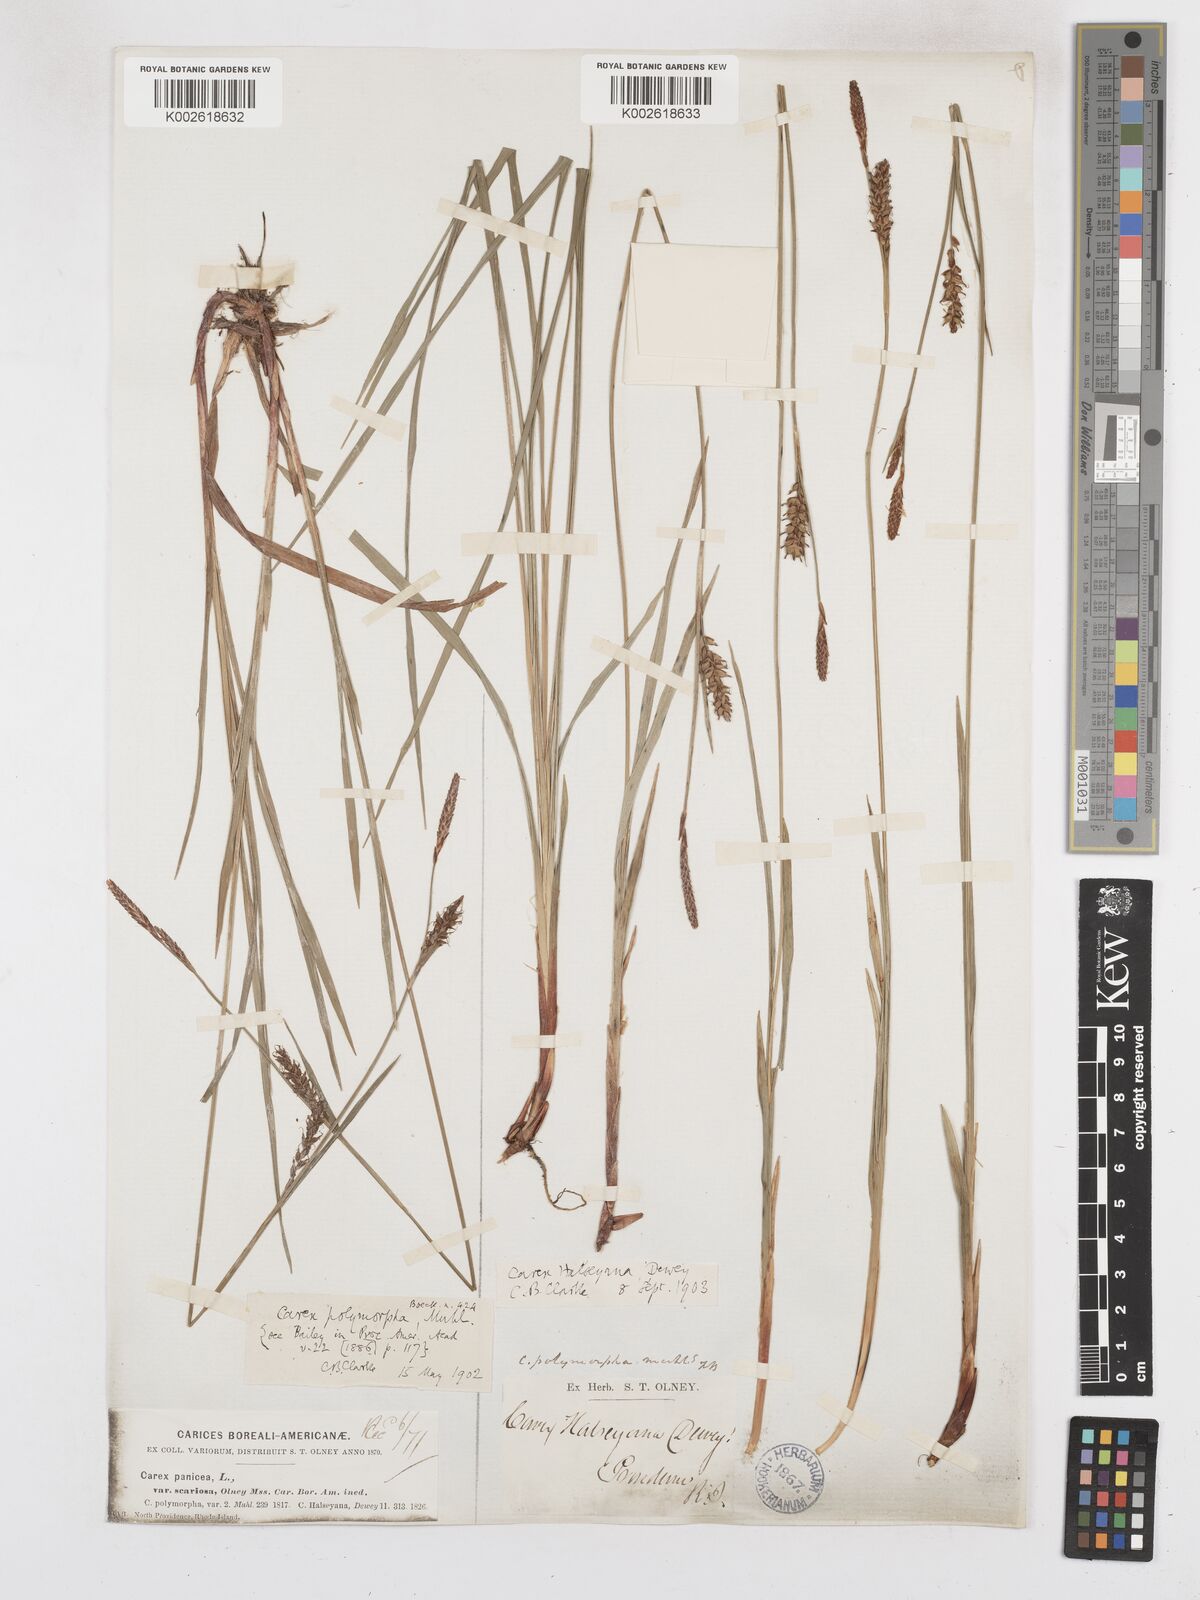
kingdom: Plantae
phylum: Tracheophyta
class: Liliopsida
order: Poales
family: Cyperaceae
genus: Carex
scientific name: Carex polymorpha
